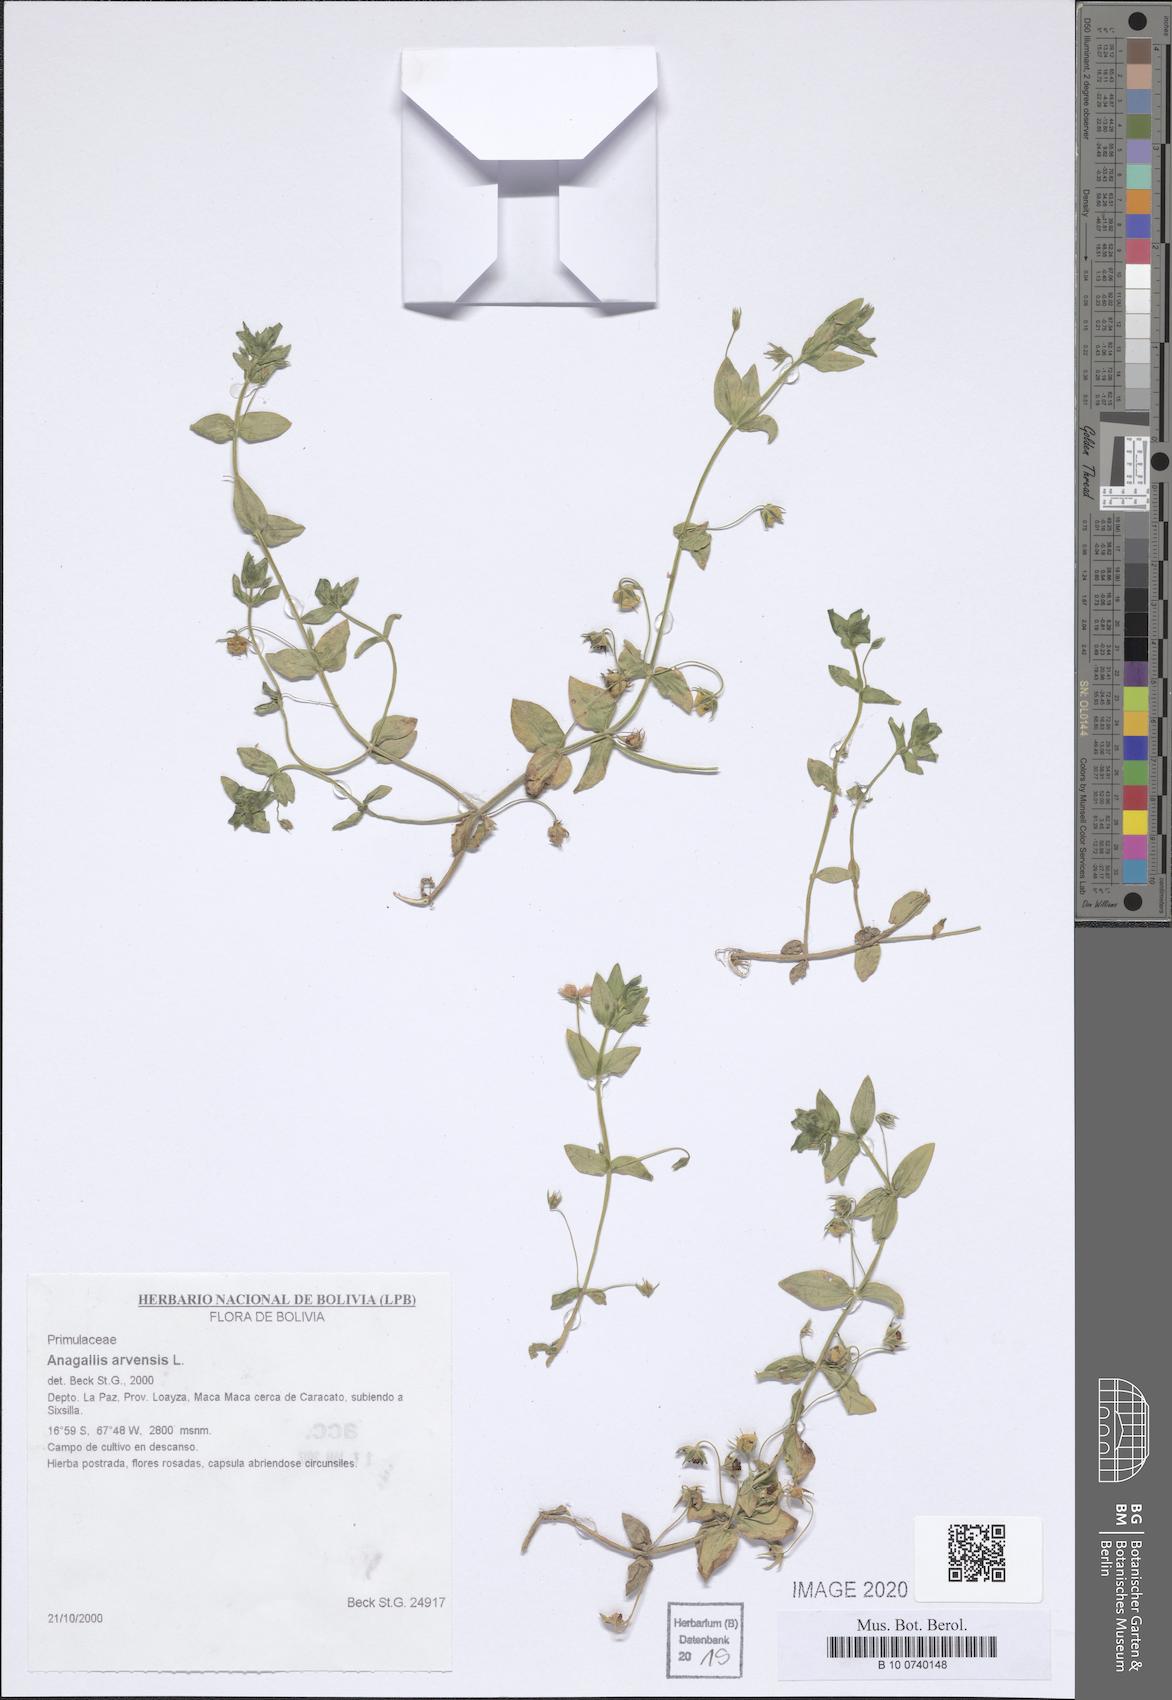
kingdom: Plantae
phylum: Tracheophyta
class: Magnoliopsida
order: Ericales
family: Primulaceae
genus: Lysimachia
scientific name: Lysimachia arvensis
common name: Scarlet pimpernel
